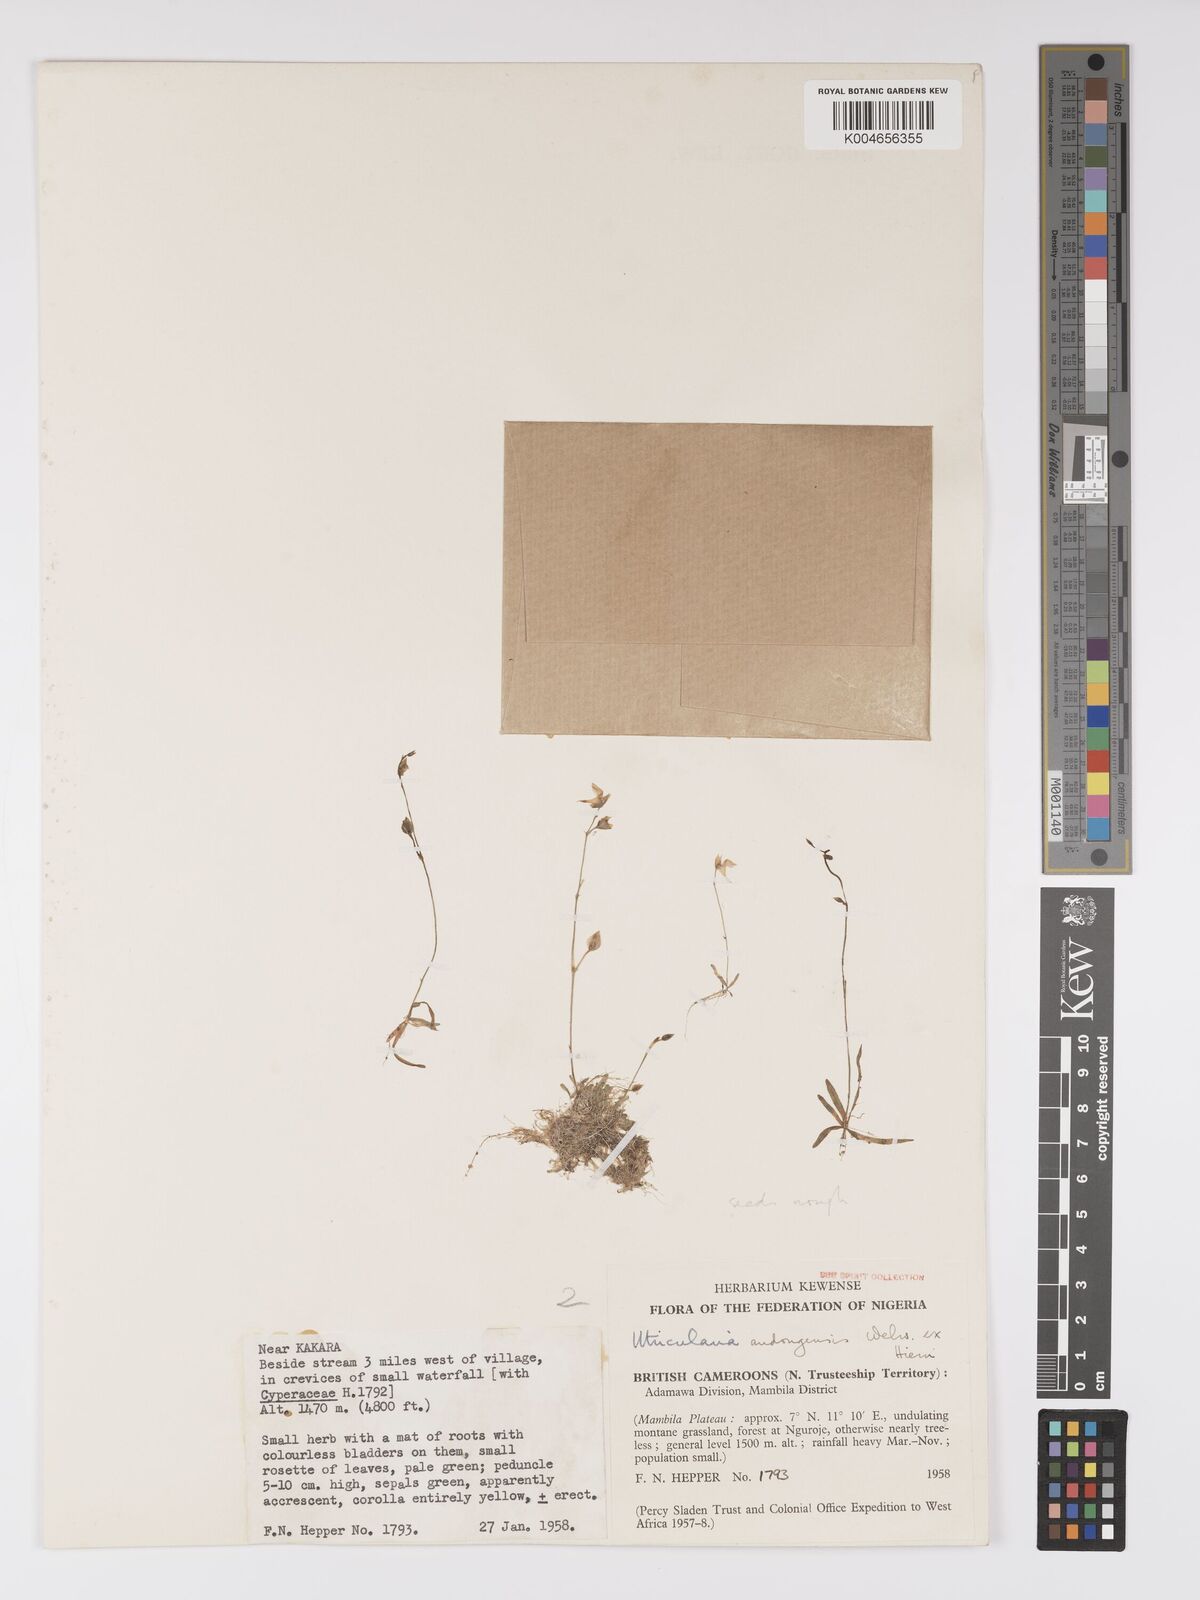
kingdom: Plantae
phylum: Tracheophyta
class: Magnoliopsida
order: Lamiales
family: Lentibulariaceae
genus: Utricularia
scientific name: Utricularia andongensis
